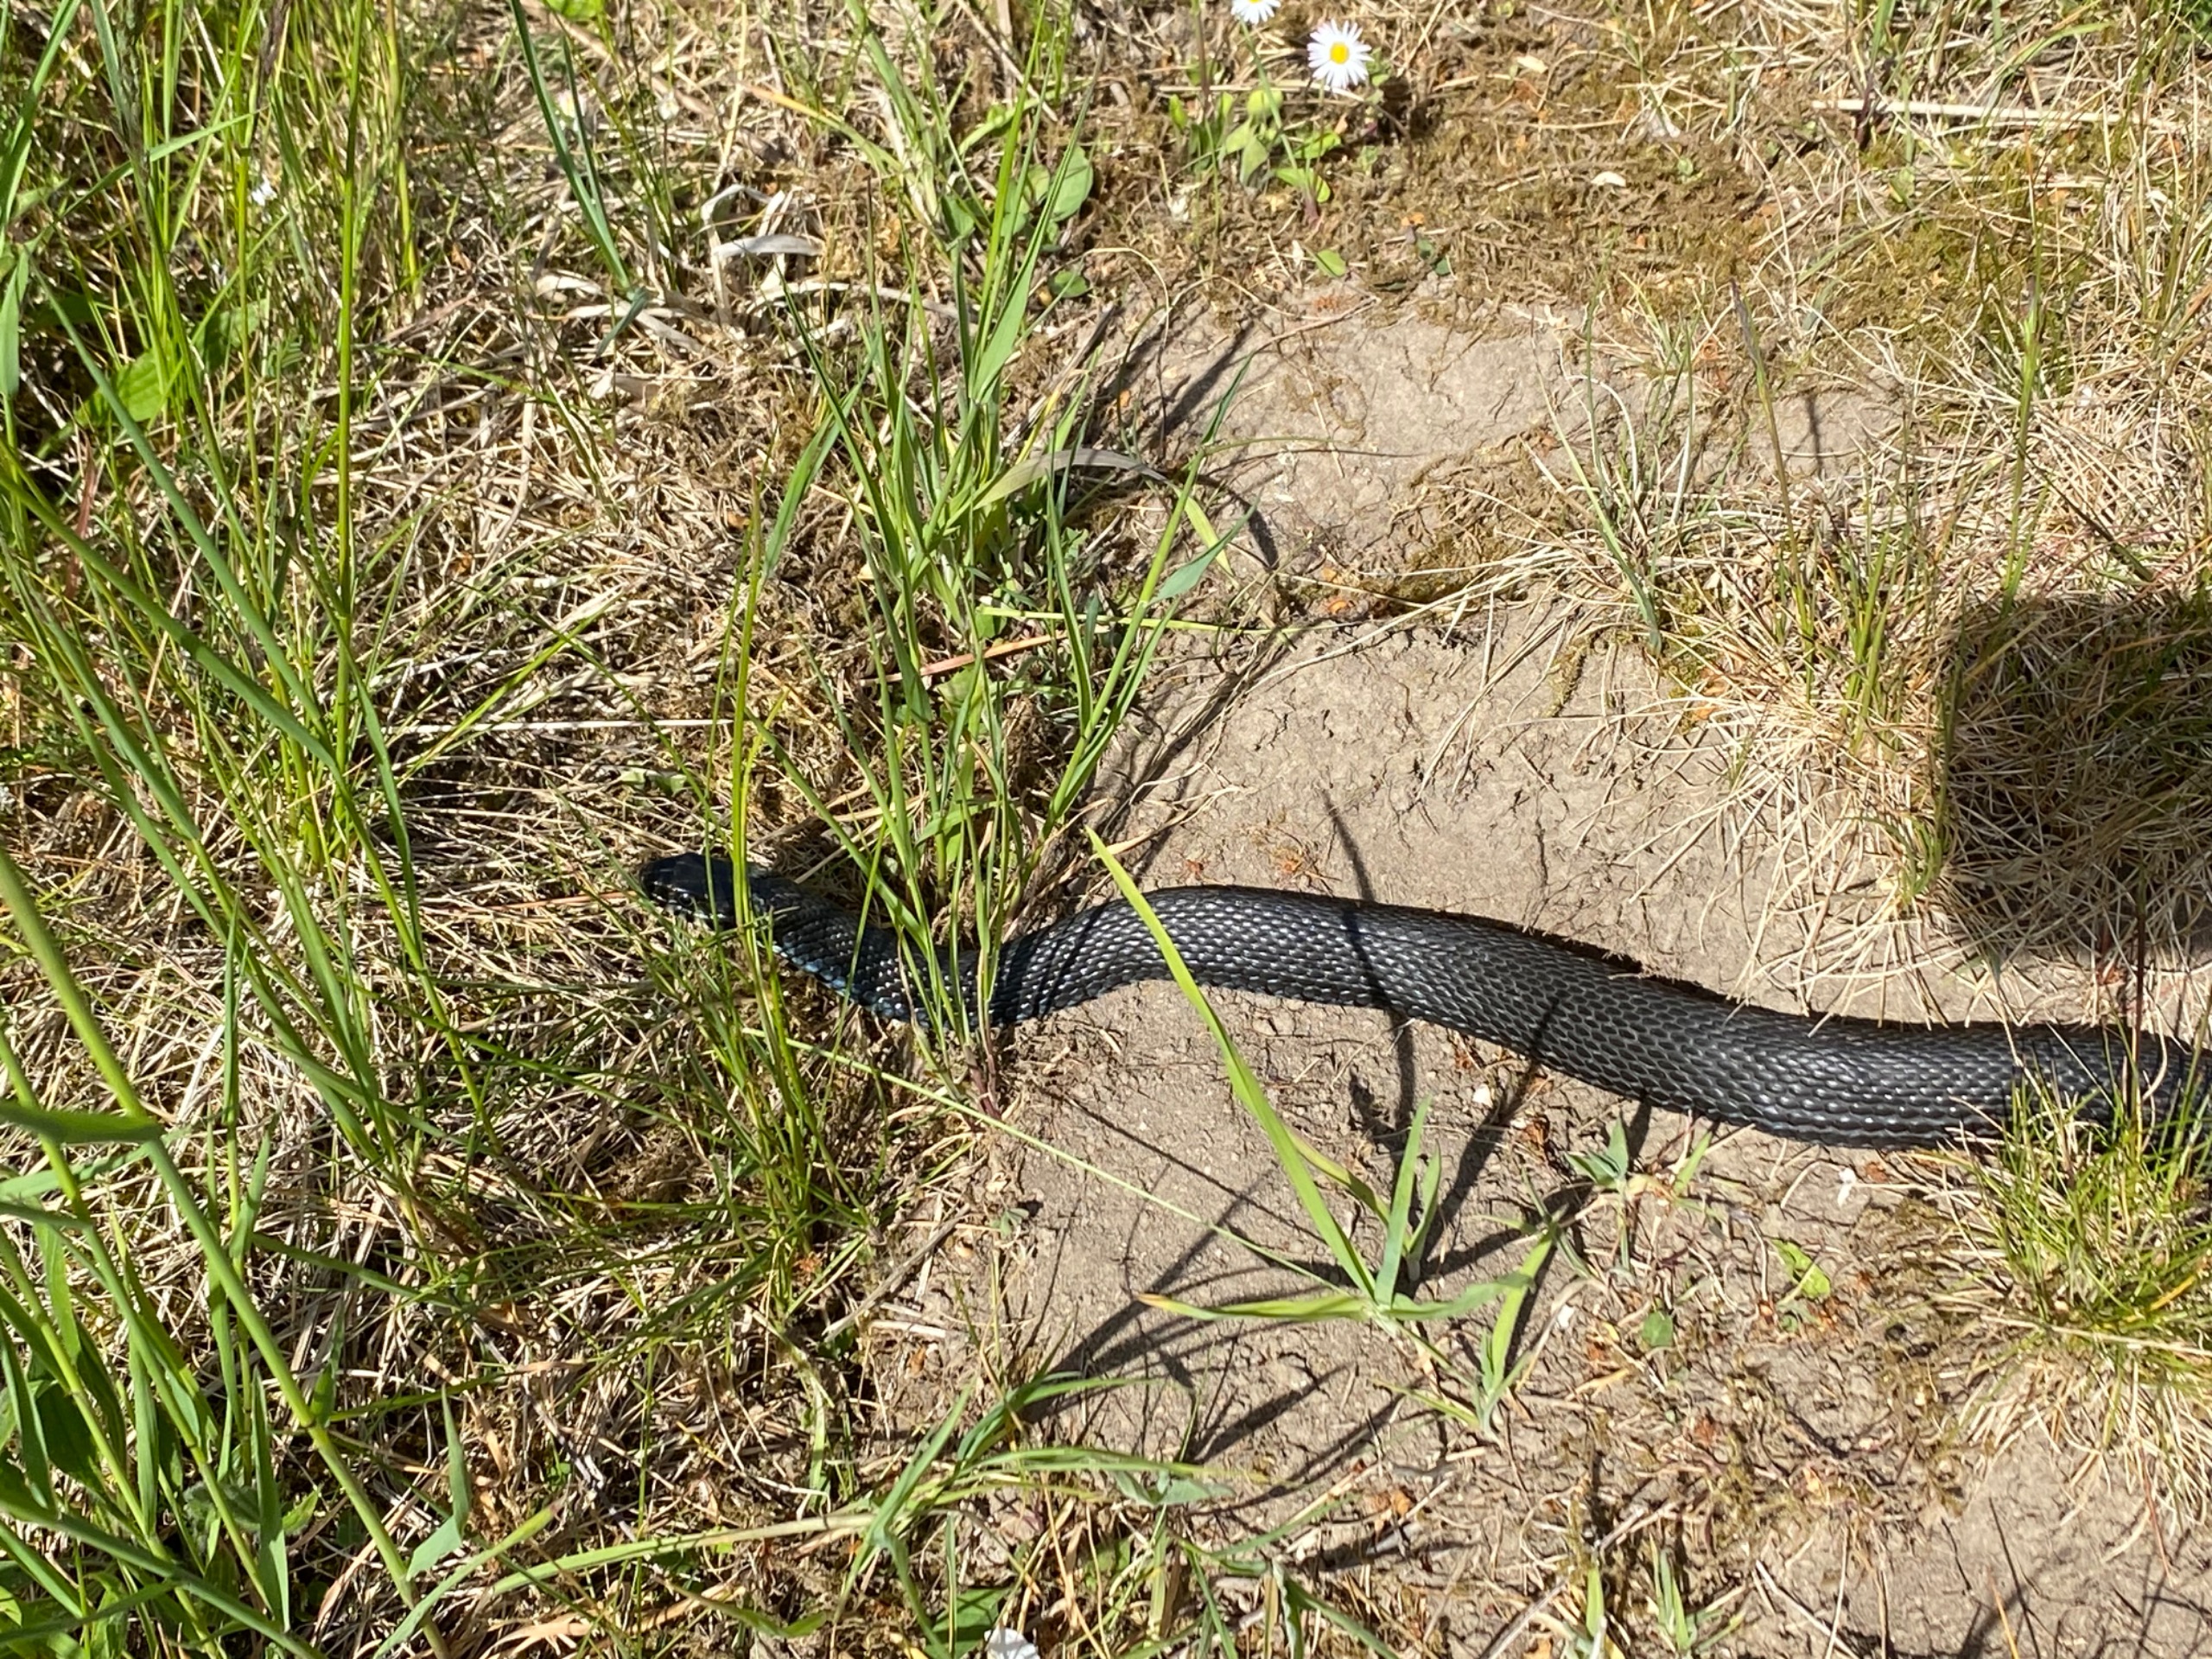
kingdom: Animalia
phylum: Chordata
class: Squamata
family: Colubridae
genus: Natrix
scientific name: Natrix natrix
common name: Snog
